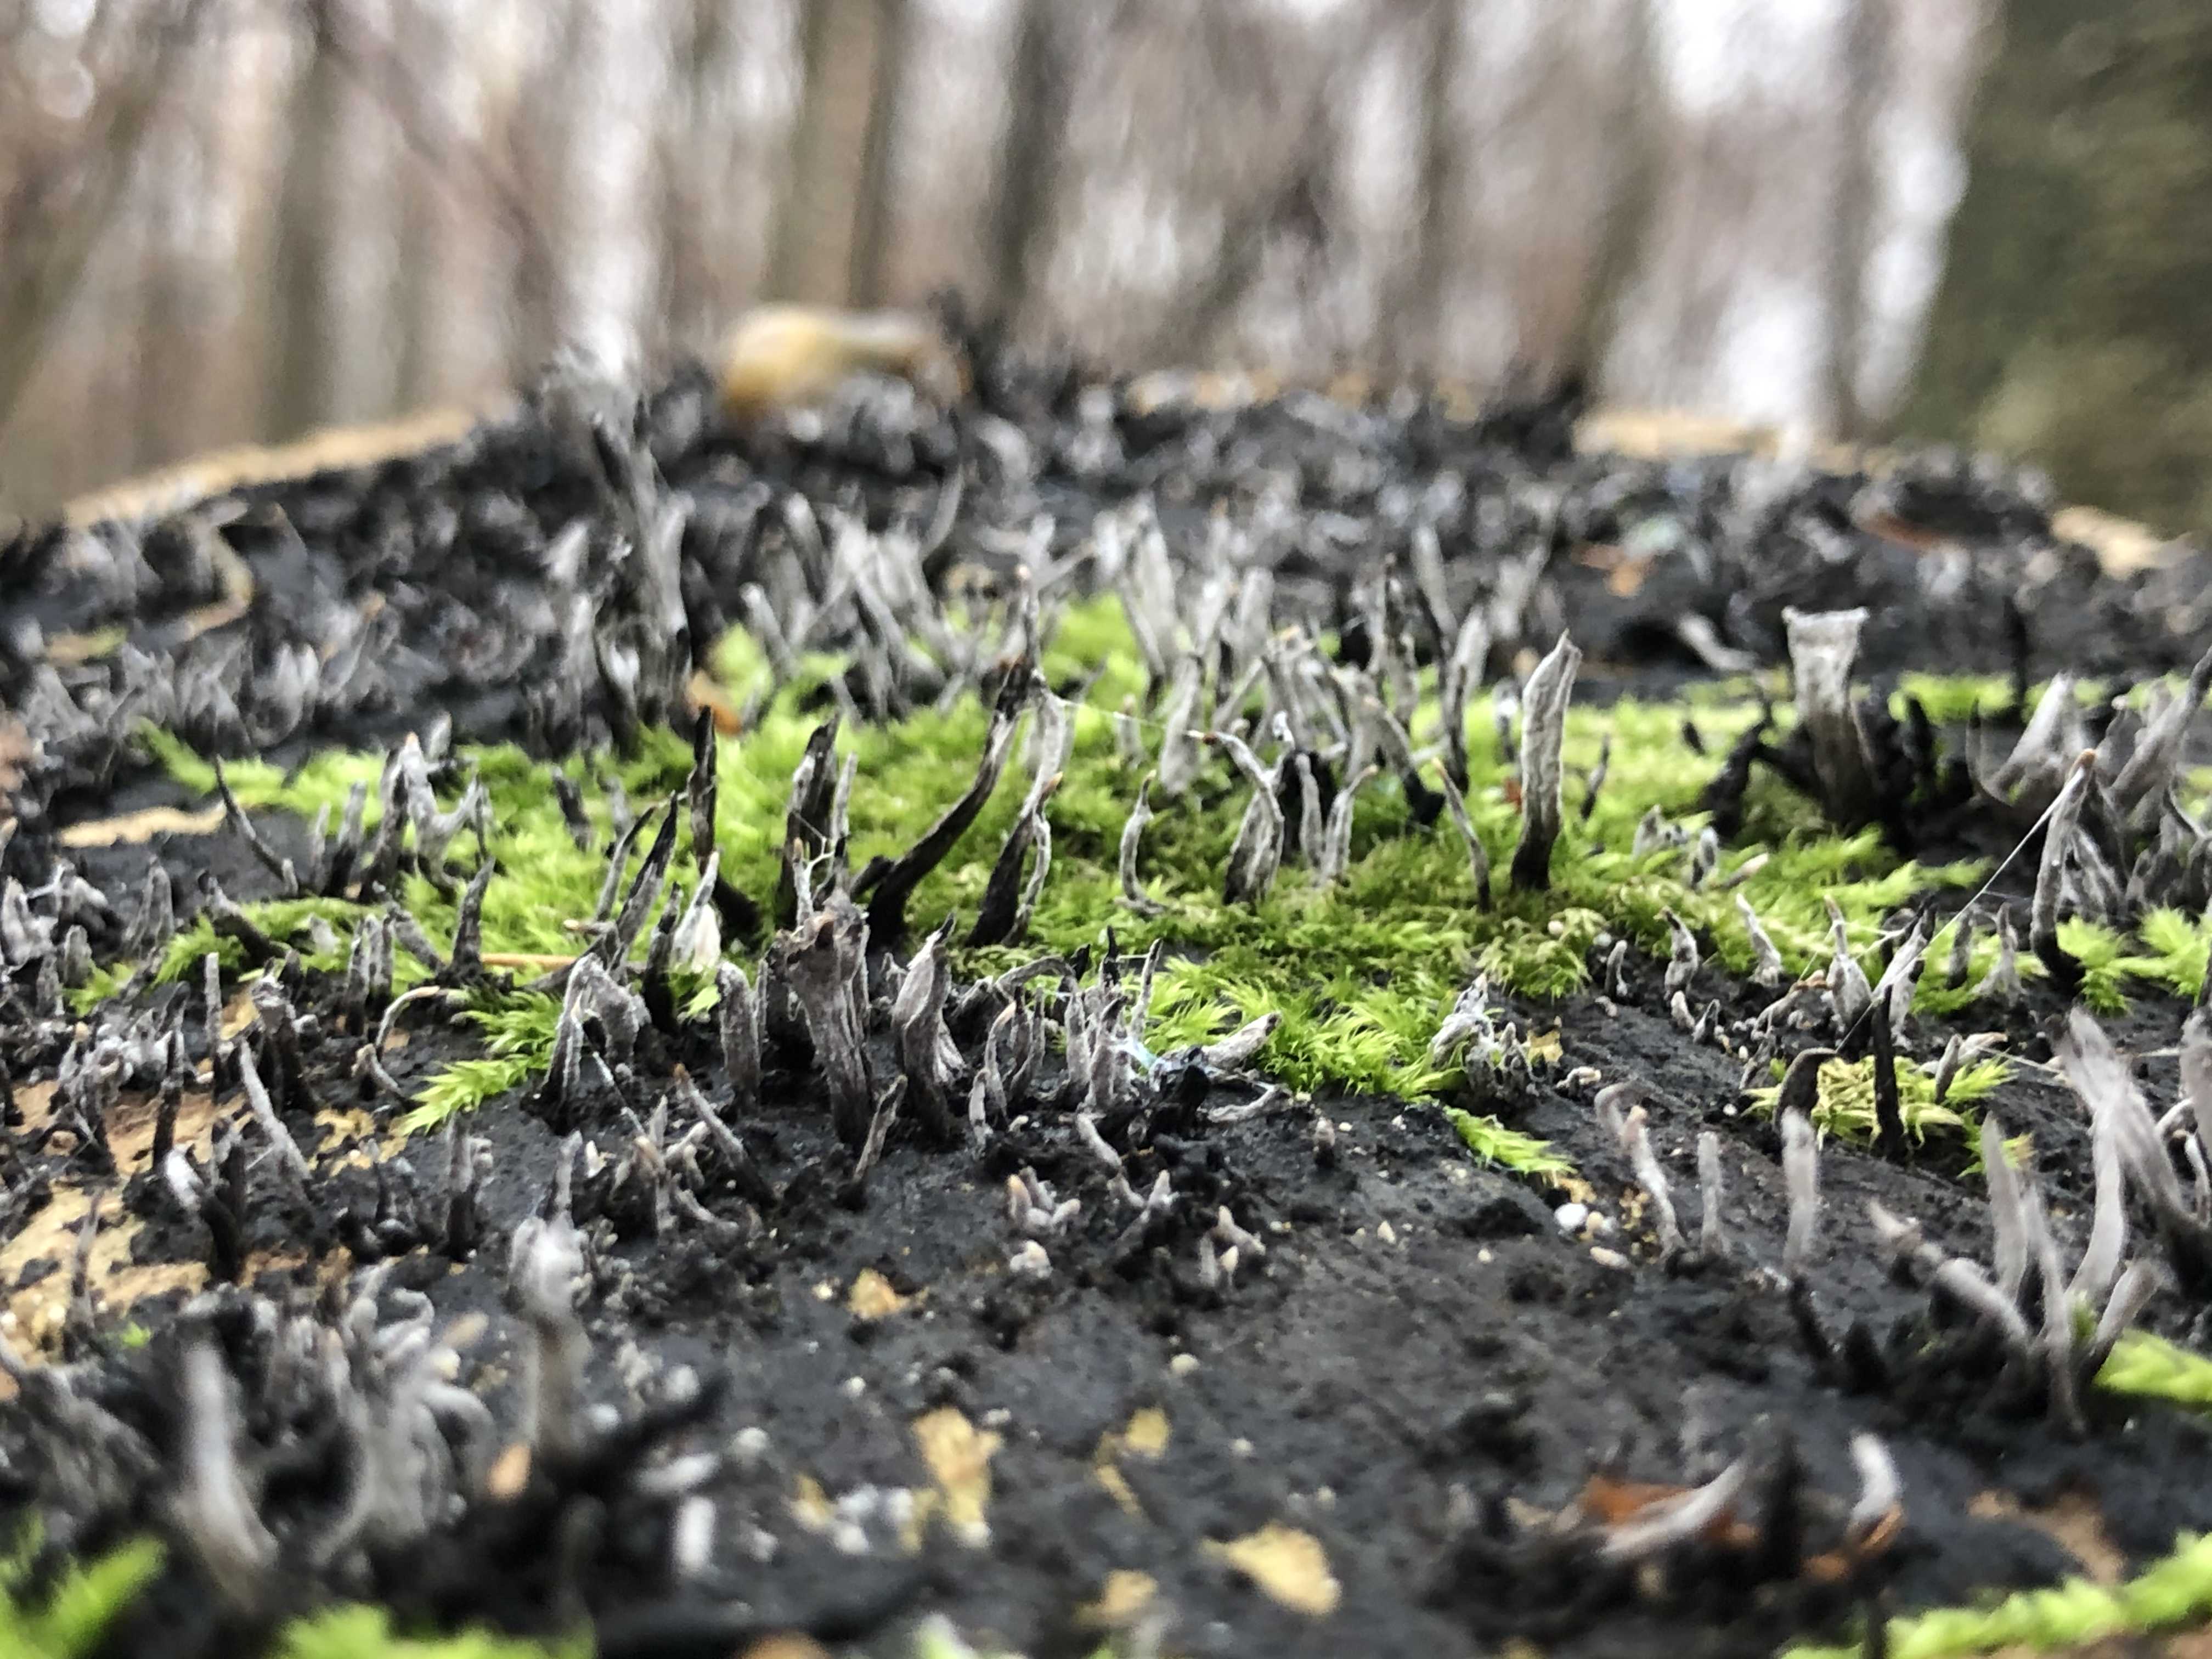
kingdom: Fungi
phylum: Ascomycota
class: Sordariomycetes
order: Xylariales
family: Xylariaceae
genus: Xylaria
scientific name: Xylaria hypoxylon
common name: grenet stødsvamp
